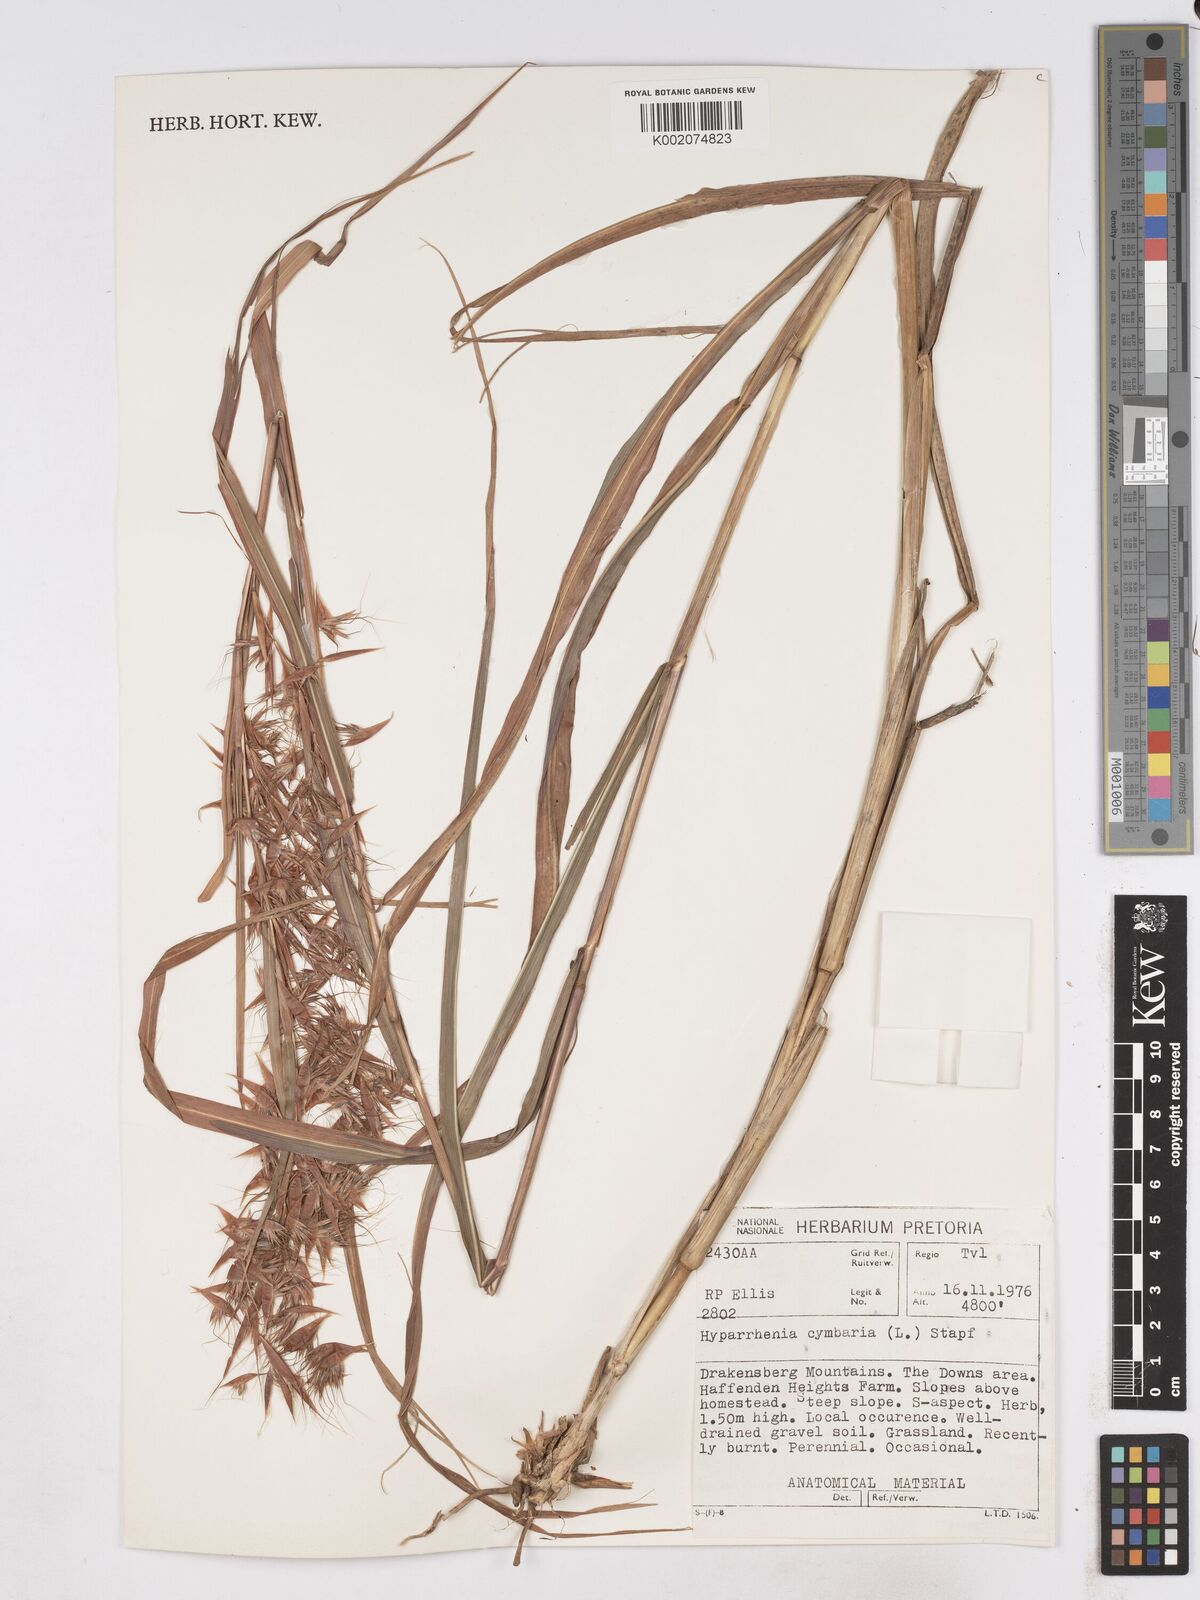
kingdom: Plantae
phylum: Tracheophyta
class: Liliopsida
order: Poales
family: Poaceae
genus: Hyparrhenia
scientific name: Hyparrhenia cymbaria
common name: Boat thatching grass
